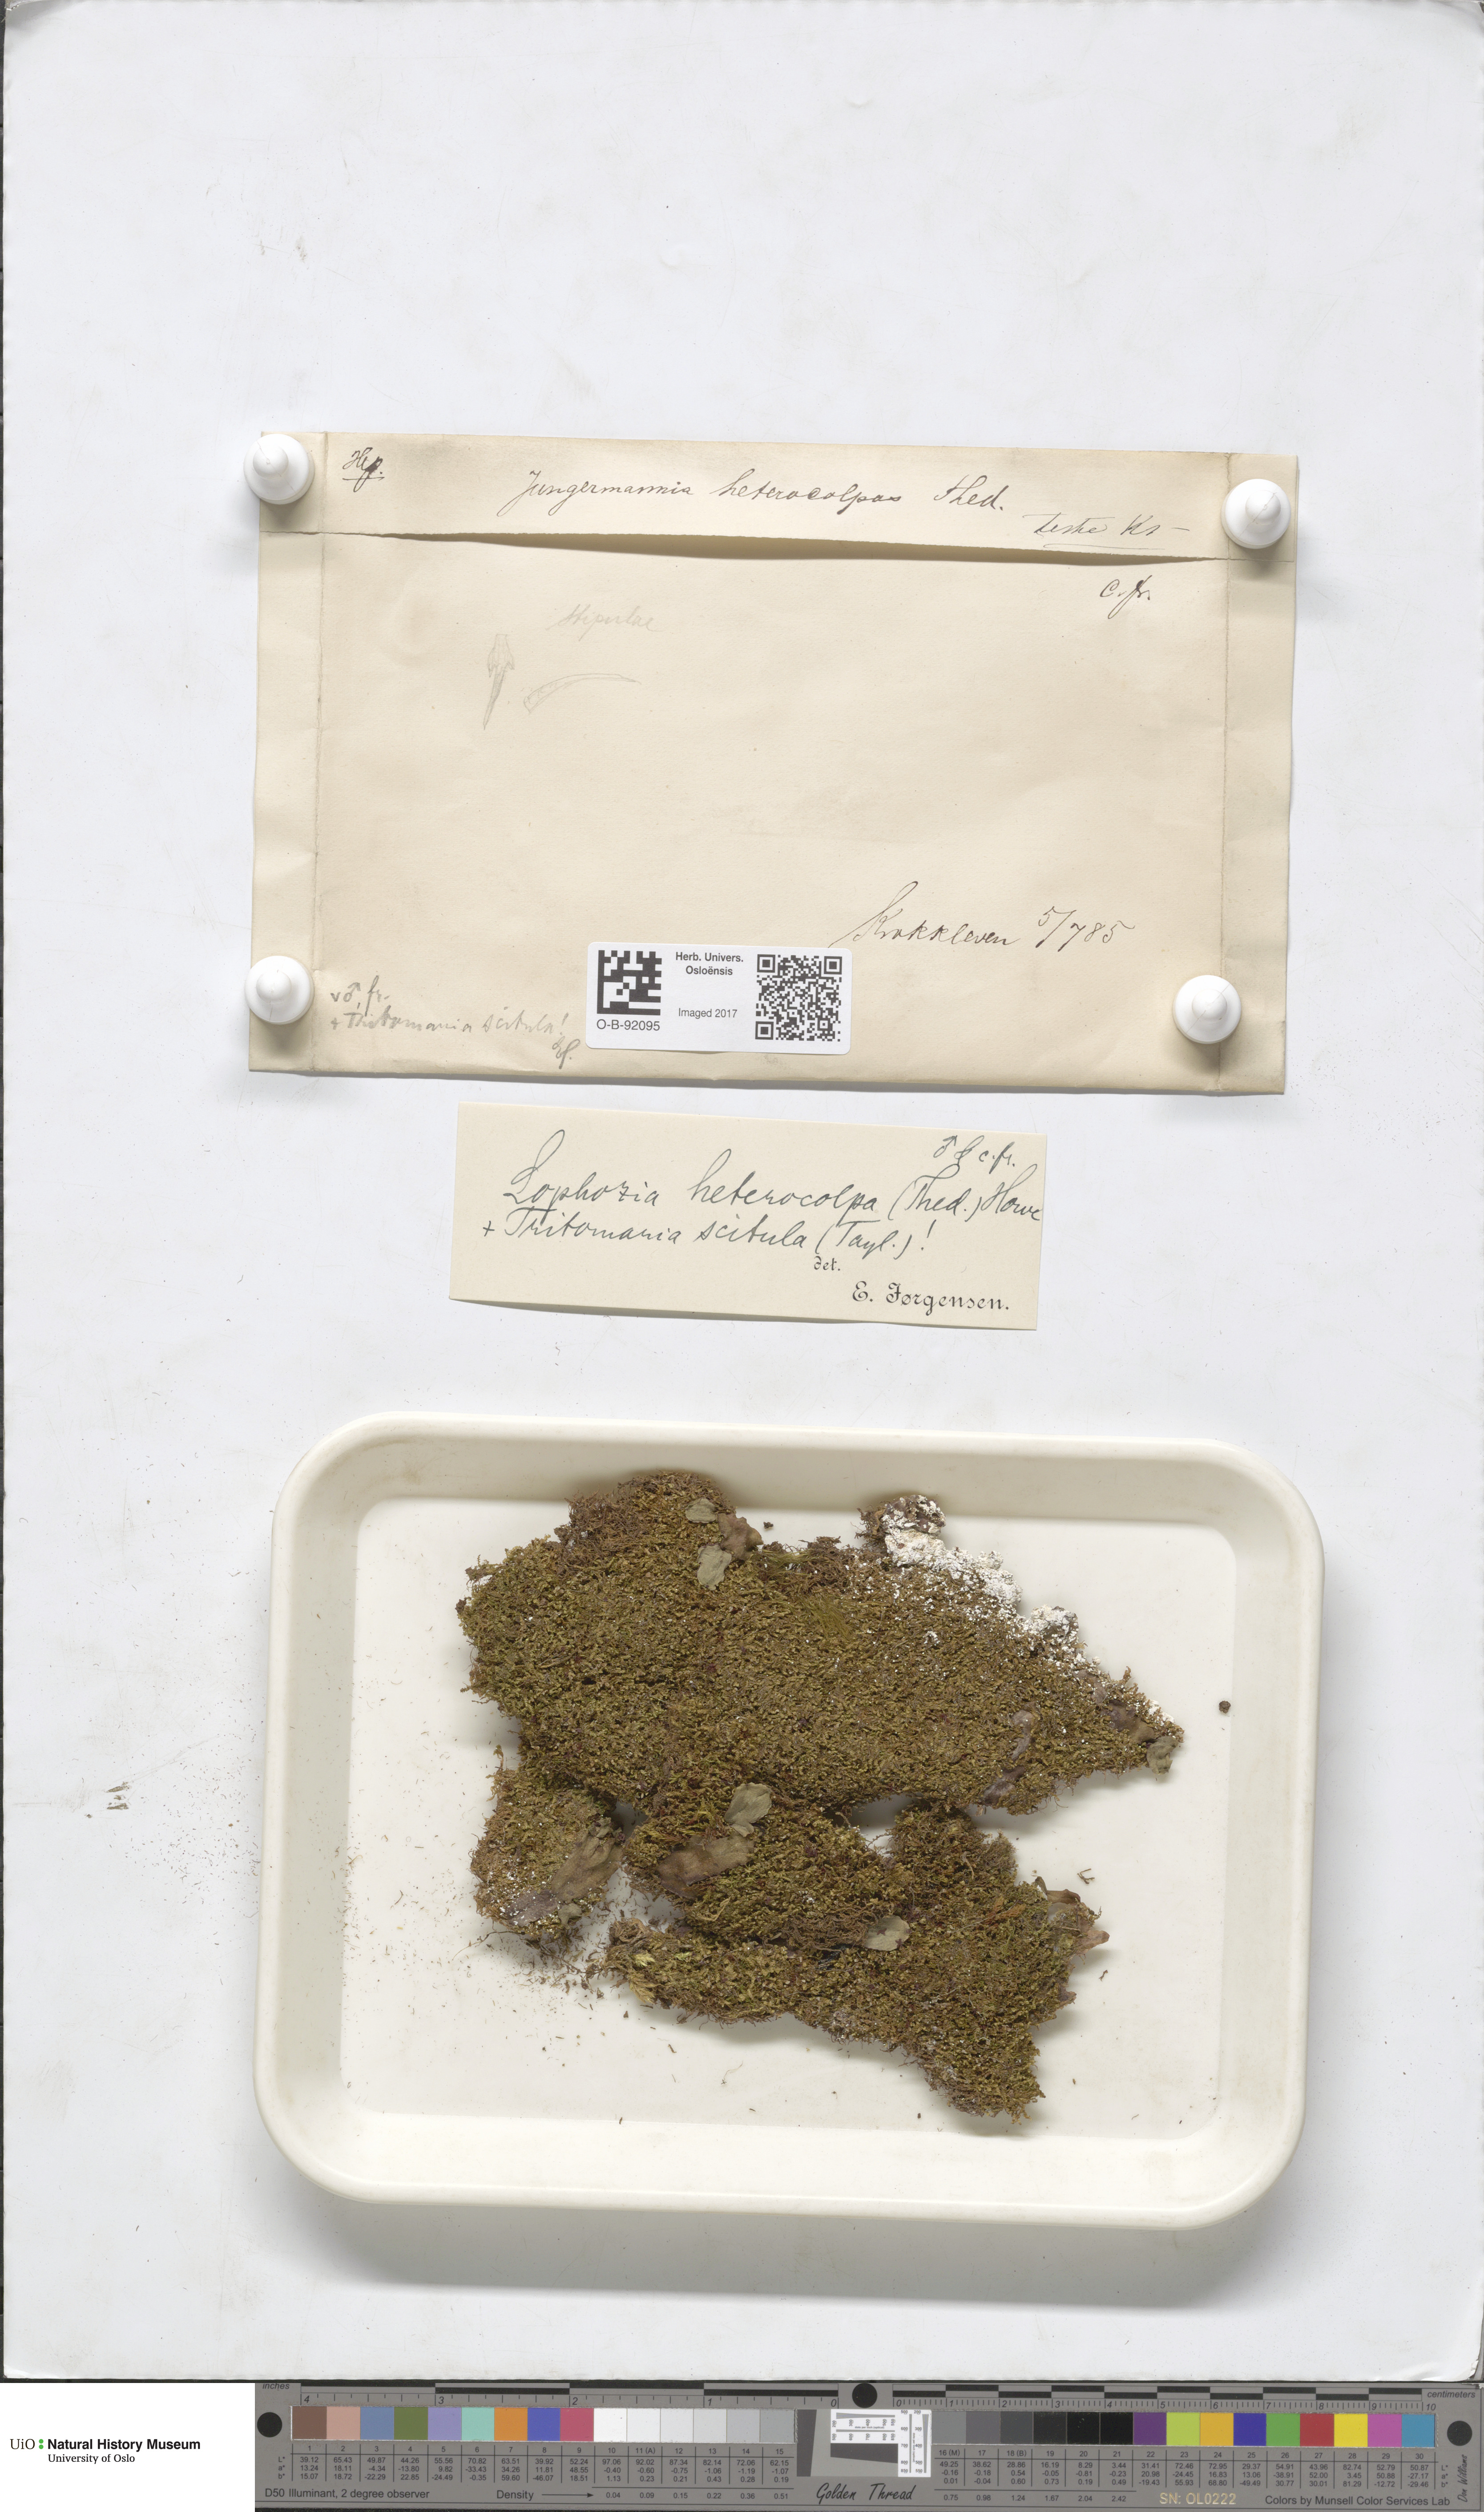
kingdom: Plantae
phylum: Marchantiophyta
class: Jungermanniopsida
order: Jungermanniales
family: Jungermanniaceae
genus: Mesoptychia
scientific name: Mesoptychia heterocolpos
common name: Ragged notchwort
